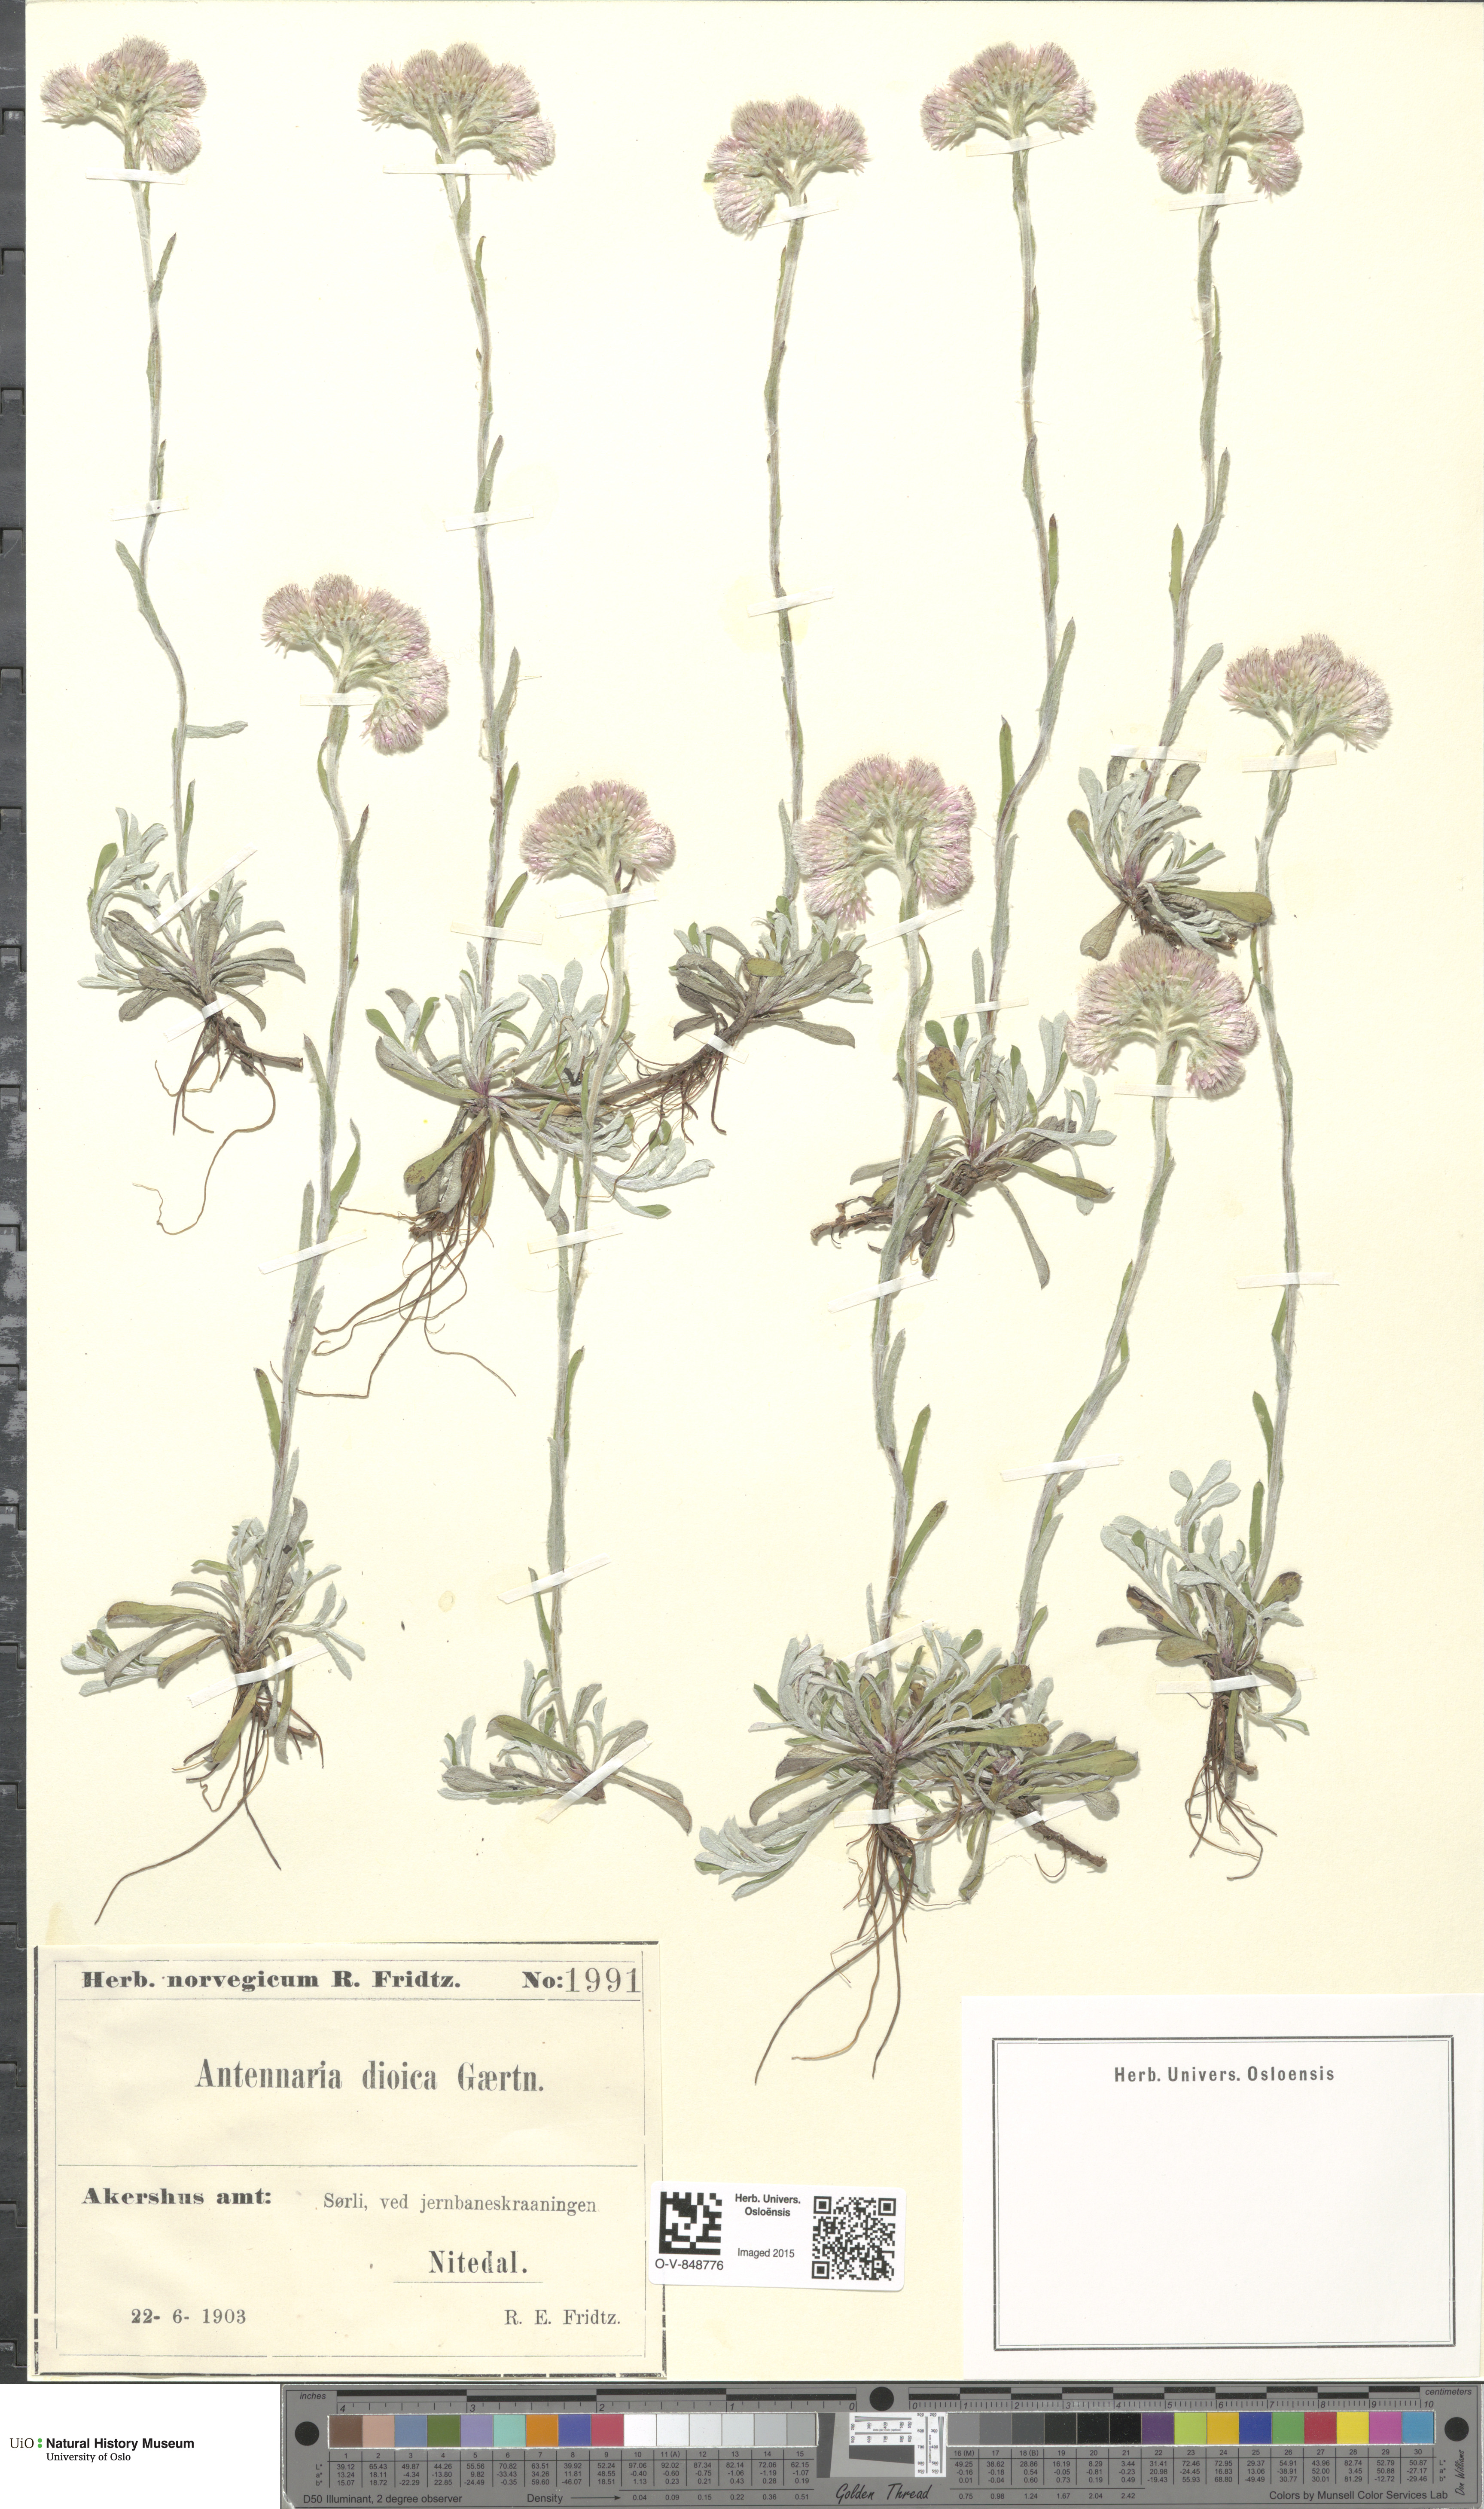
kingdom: Plantae
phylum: Tracheophyta
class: Magnoliopsida
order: Asterales
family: Asteraceae
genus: Antennaria
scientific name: Antennaria dioica
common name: Mountain everlasting
